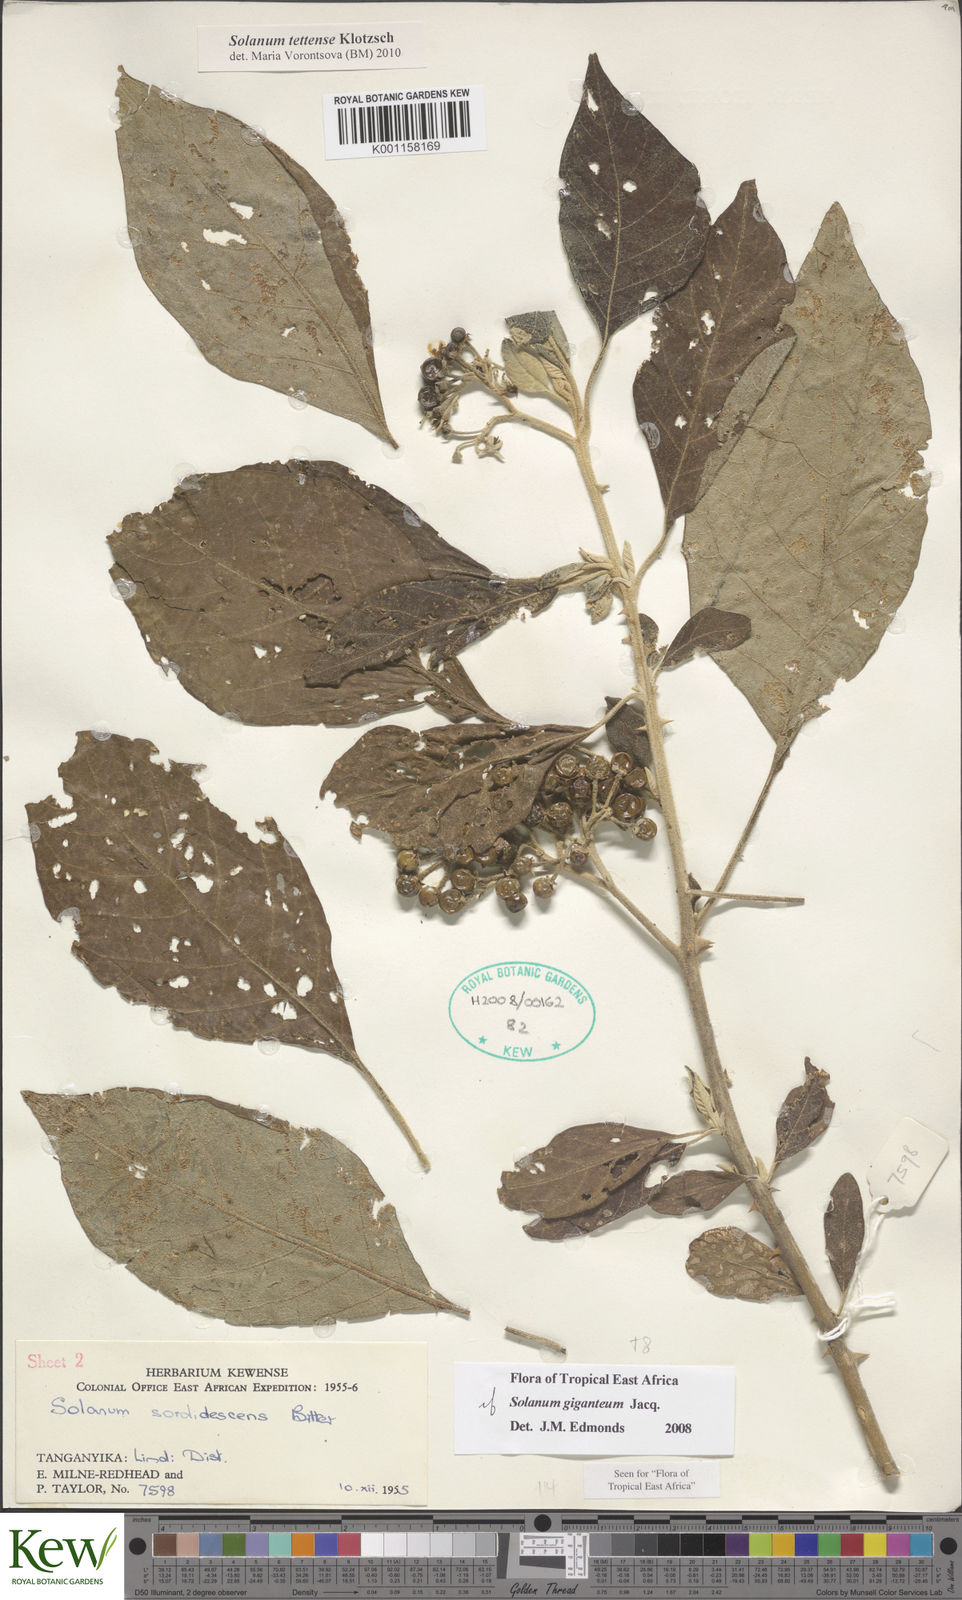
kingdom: Plantae
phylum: Tracheophyta
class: Magnoliopsida
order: Solanales
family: Solanaceae
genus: Solanum
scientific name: Solanum tettense
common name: Mozambique bitter apple
